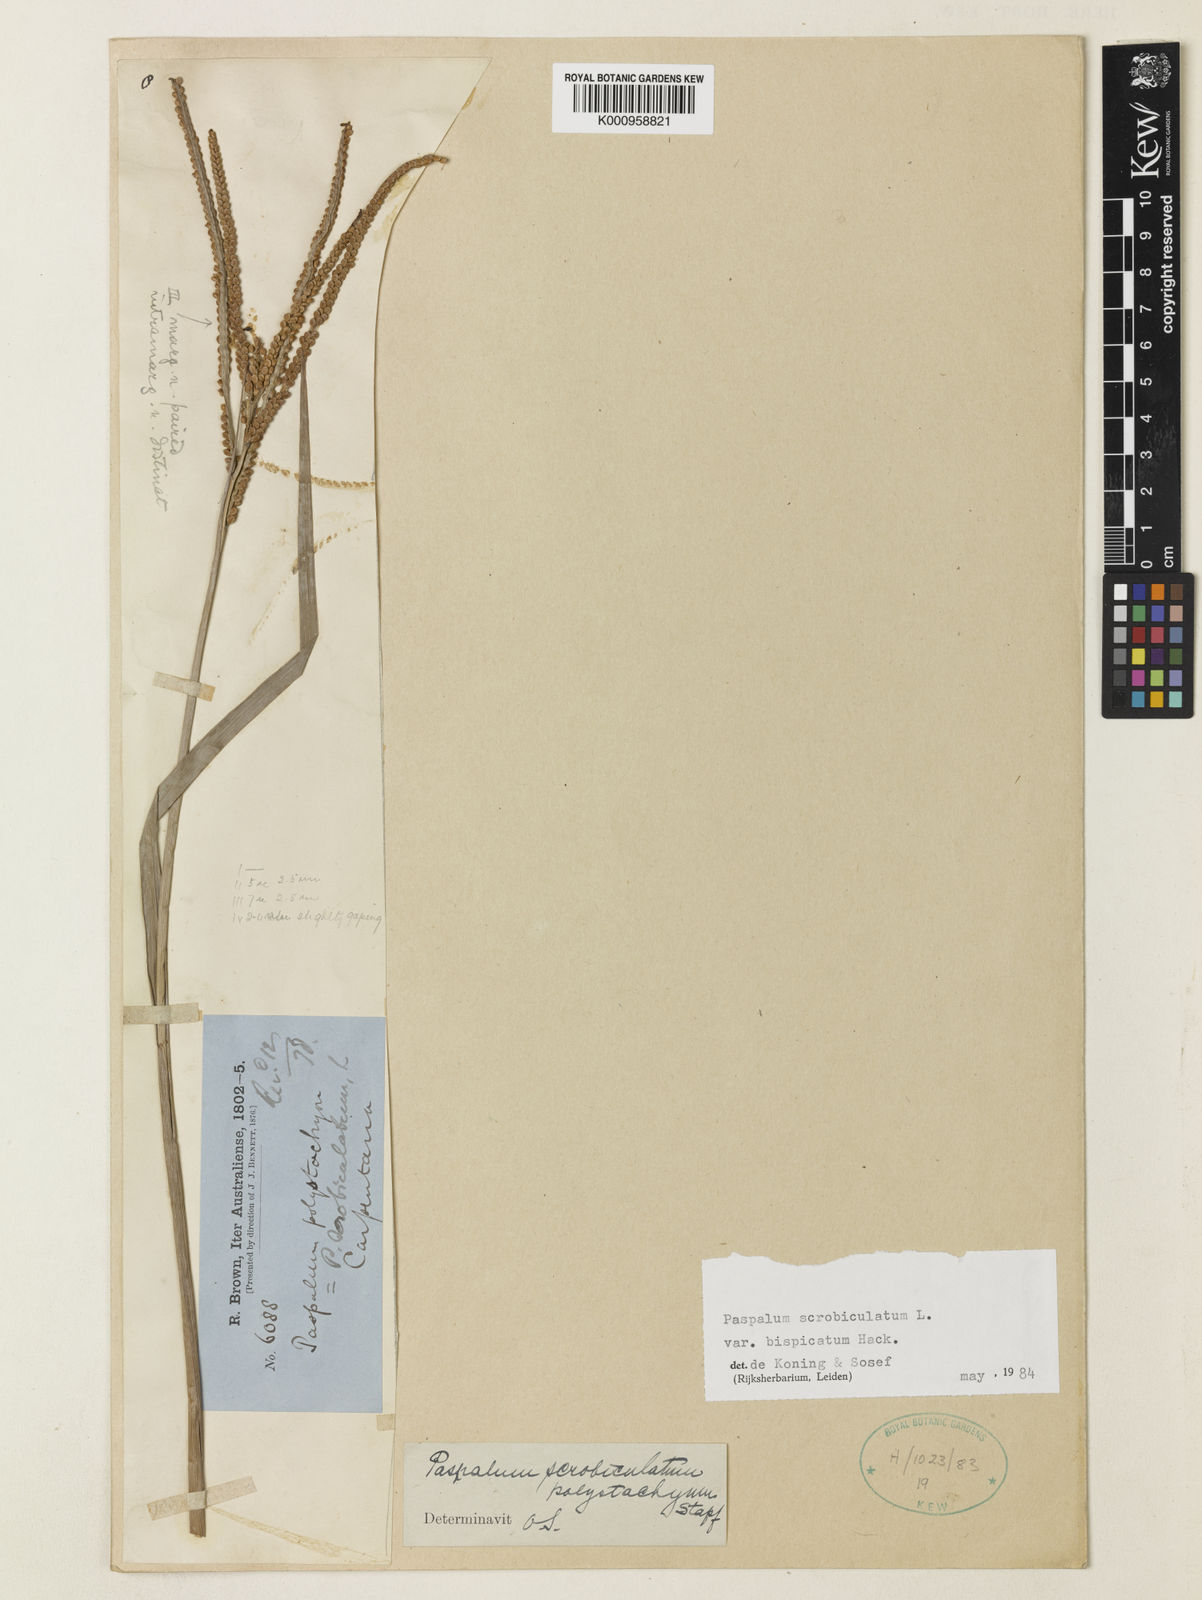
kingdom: Plantae
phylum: Tracheophyta
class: Liliopsida
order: Poales
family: Poaceae
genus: Urochloa
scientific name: Urochloa polystachya
